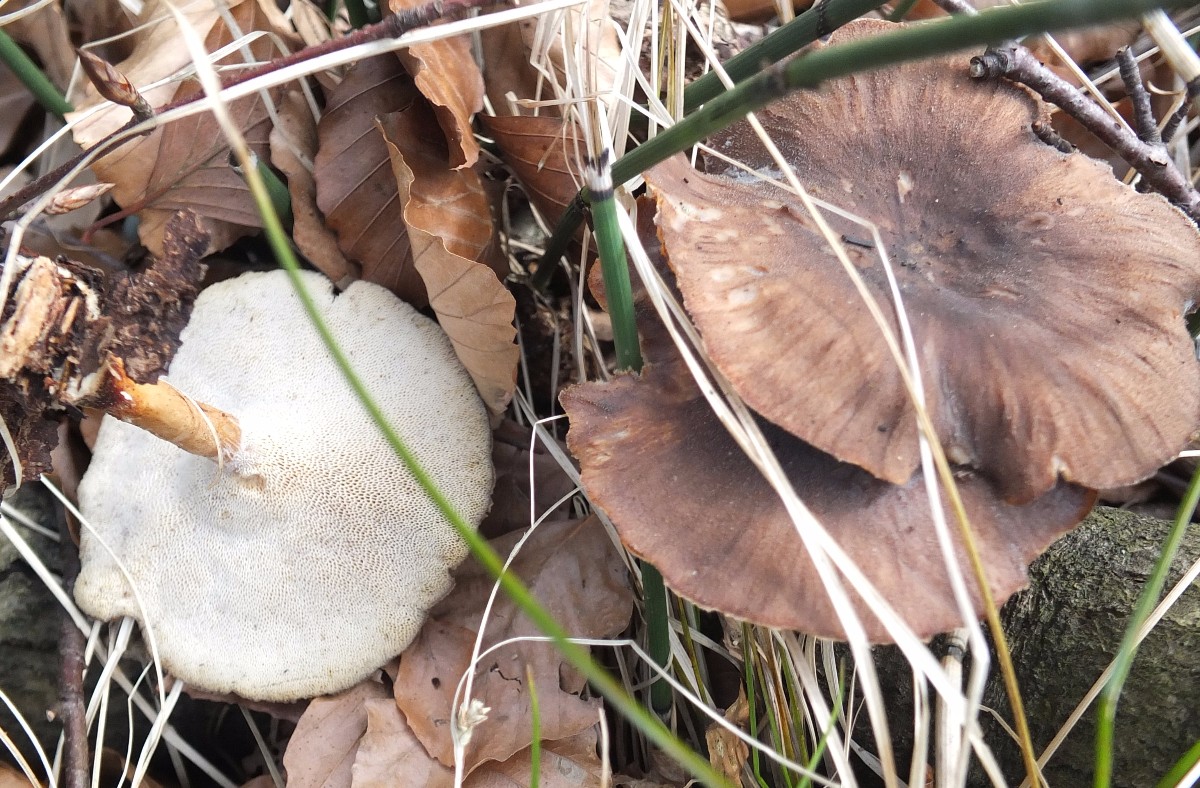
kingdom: Fungi
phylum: Basidiomycota
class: Agaricomycetes
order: Polyporales
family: Polyporaceae
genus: Lentinus
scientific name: Lentinus brumalis
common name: vinter-stilkporesvamp
